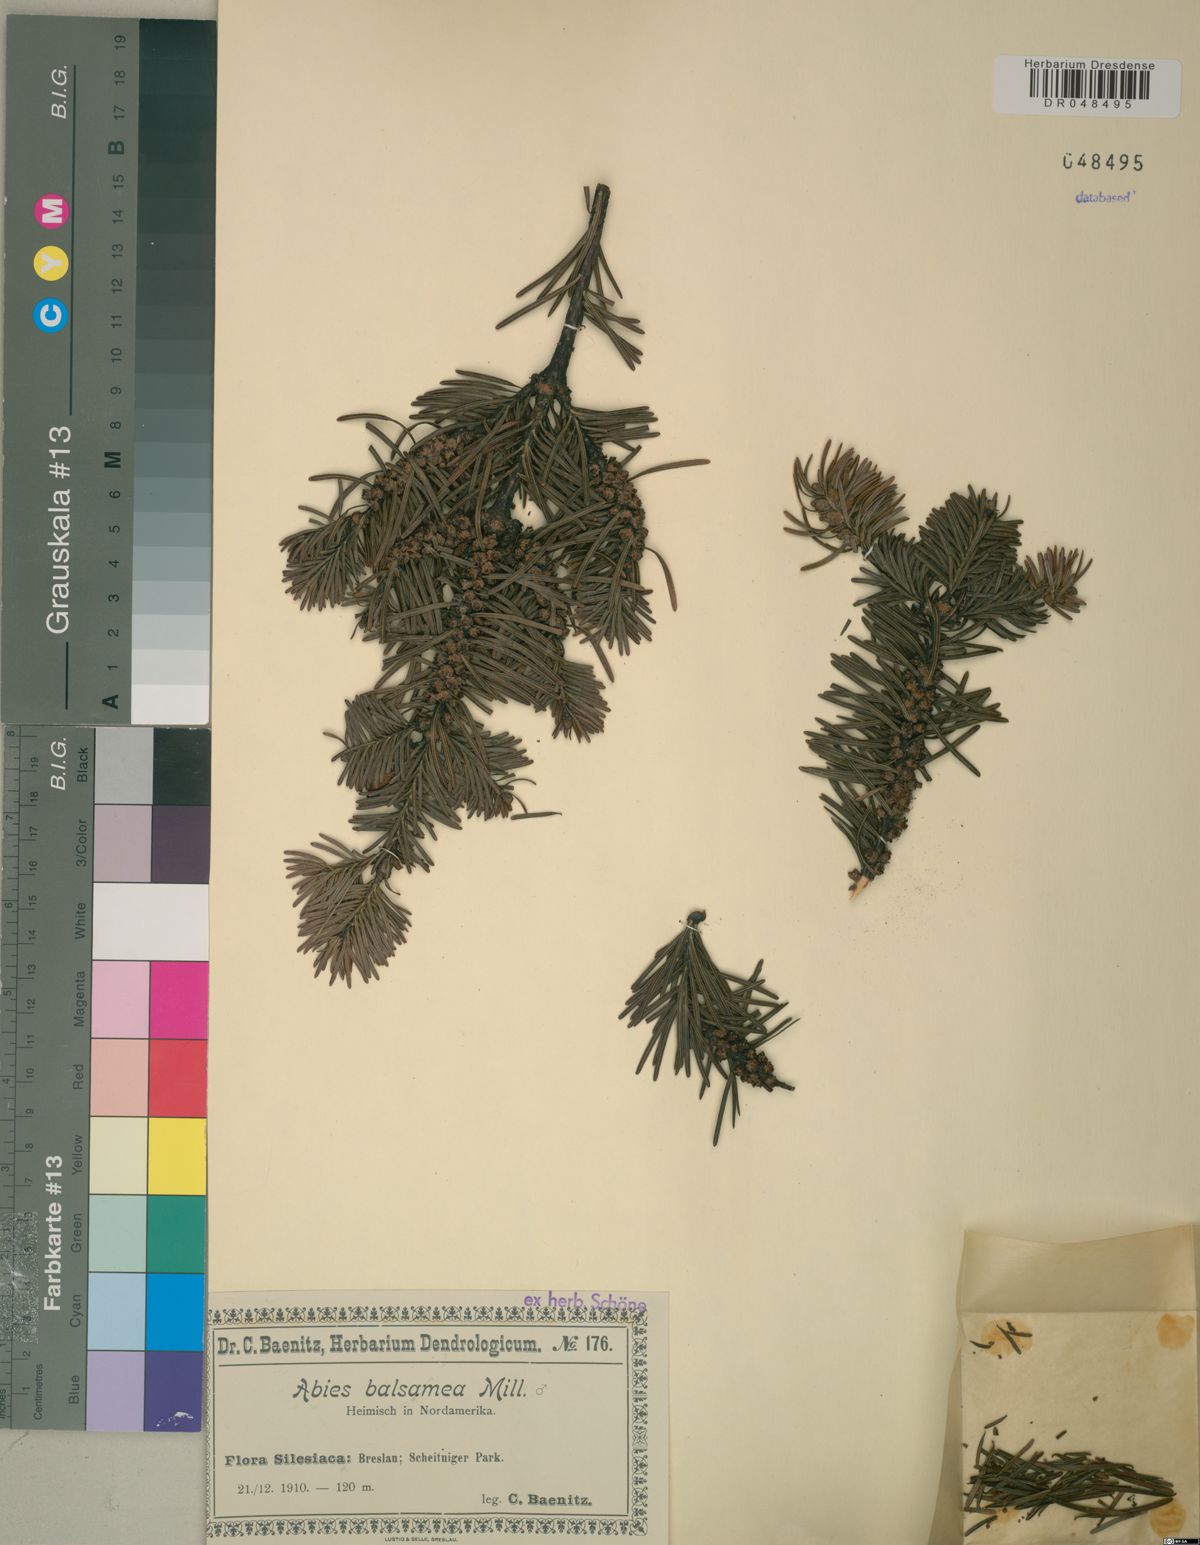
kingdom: Plantae
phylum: Tracheophyta
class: Pinopsida
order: Pinales
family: Pinaceae
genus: Abies
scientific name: Abies balsamea
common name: Balsam fir
